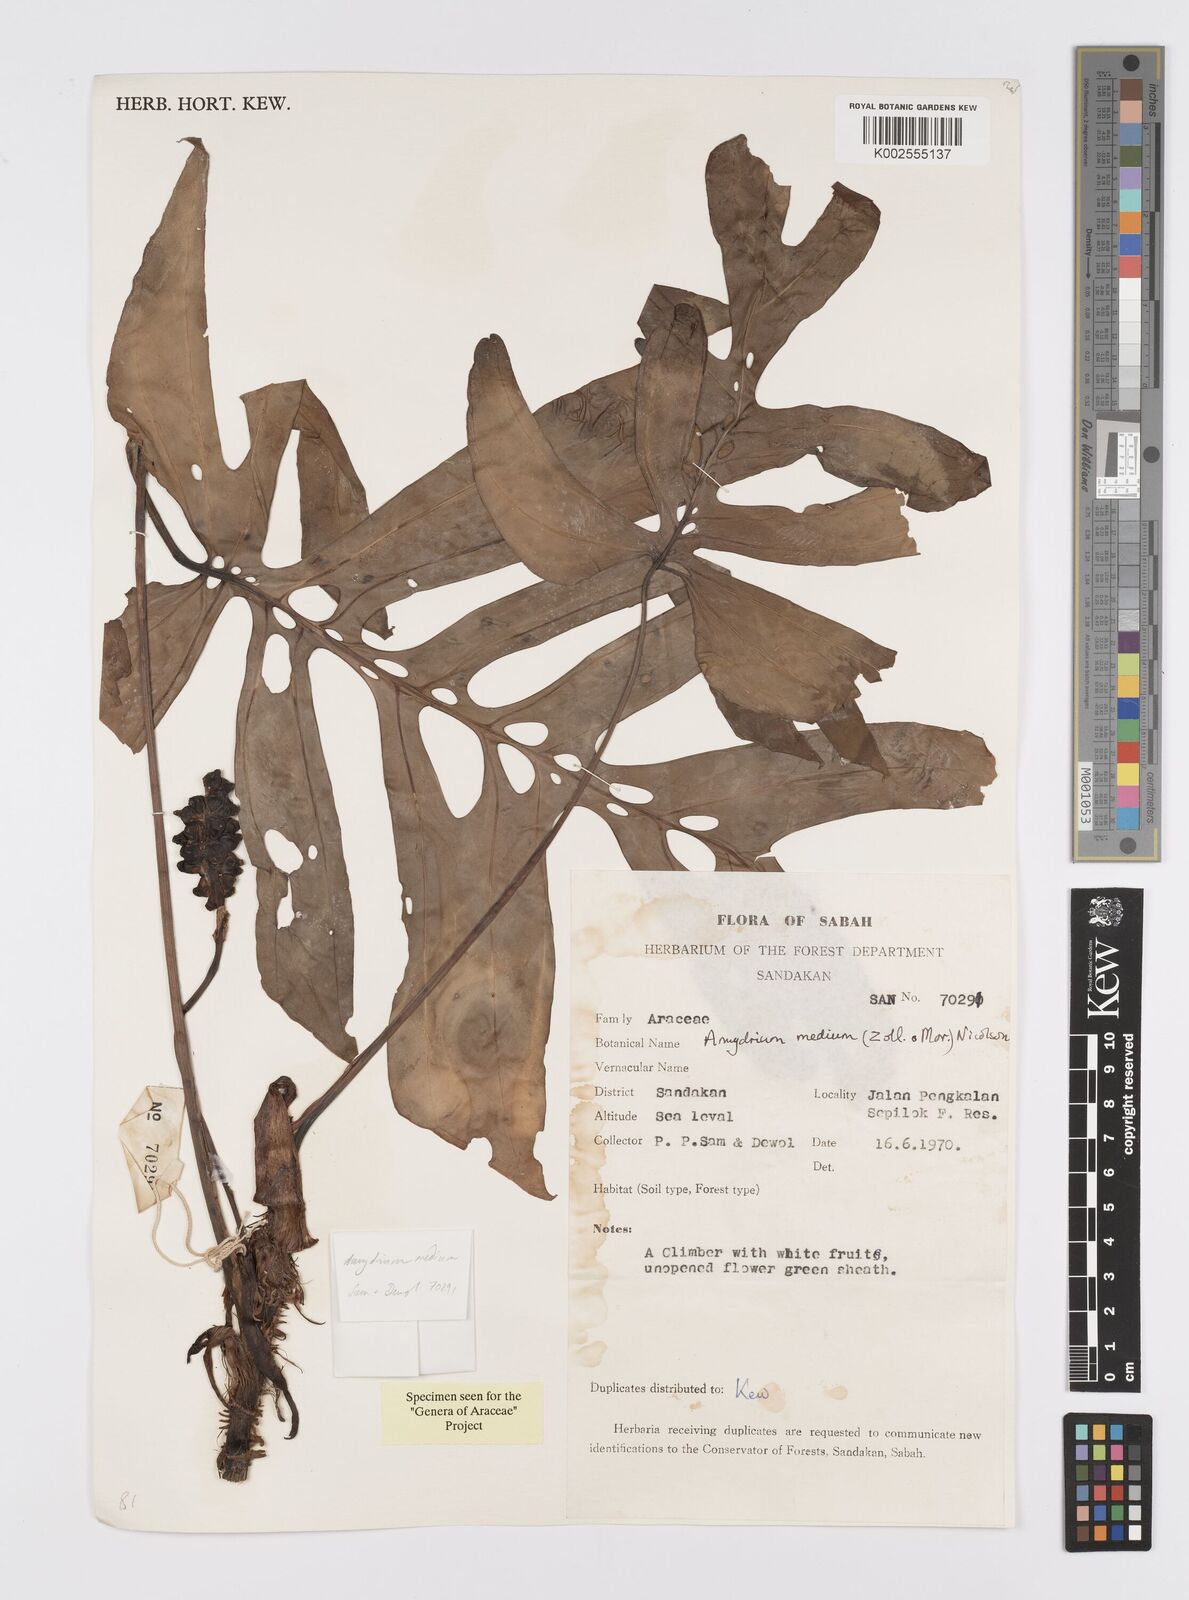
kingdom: Plantae
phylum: Tracheophyta
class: Liliopsida
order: Alismatales
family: Araceae
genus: Amydrium
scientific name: Amydrium medium
